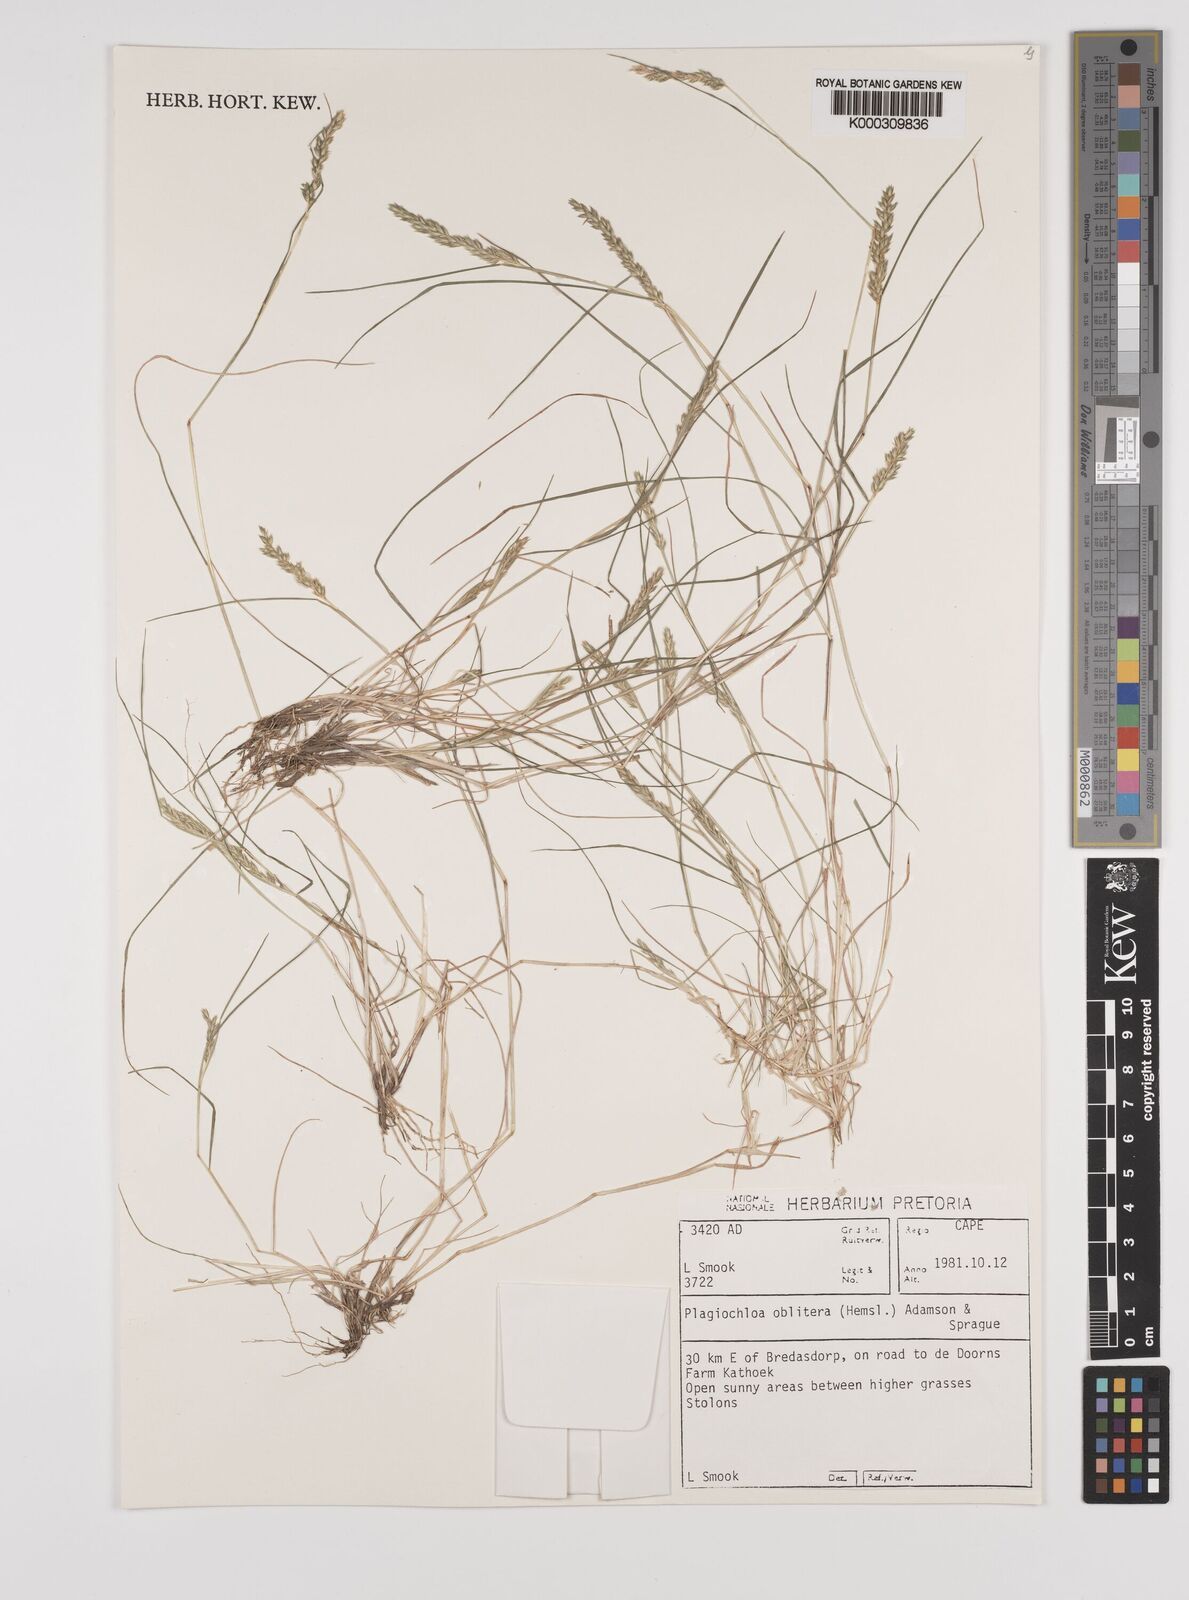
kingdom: Plantae
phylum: Tracheophyta
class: Liliopsida
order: Poales
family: Poaceae
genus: Tribolium
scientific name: Tribolium acutiflorum
